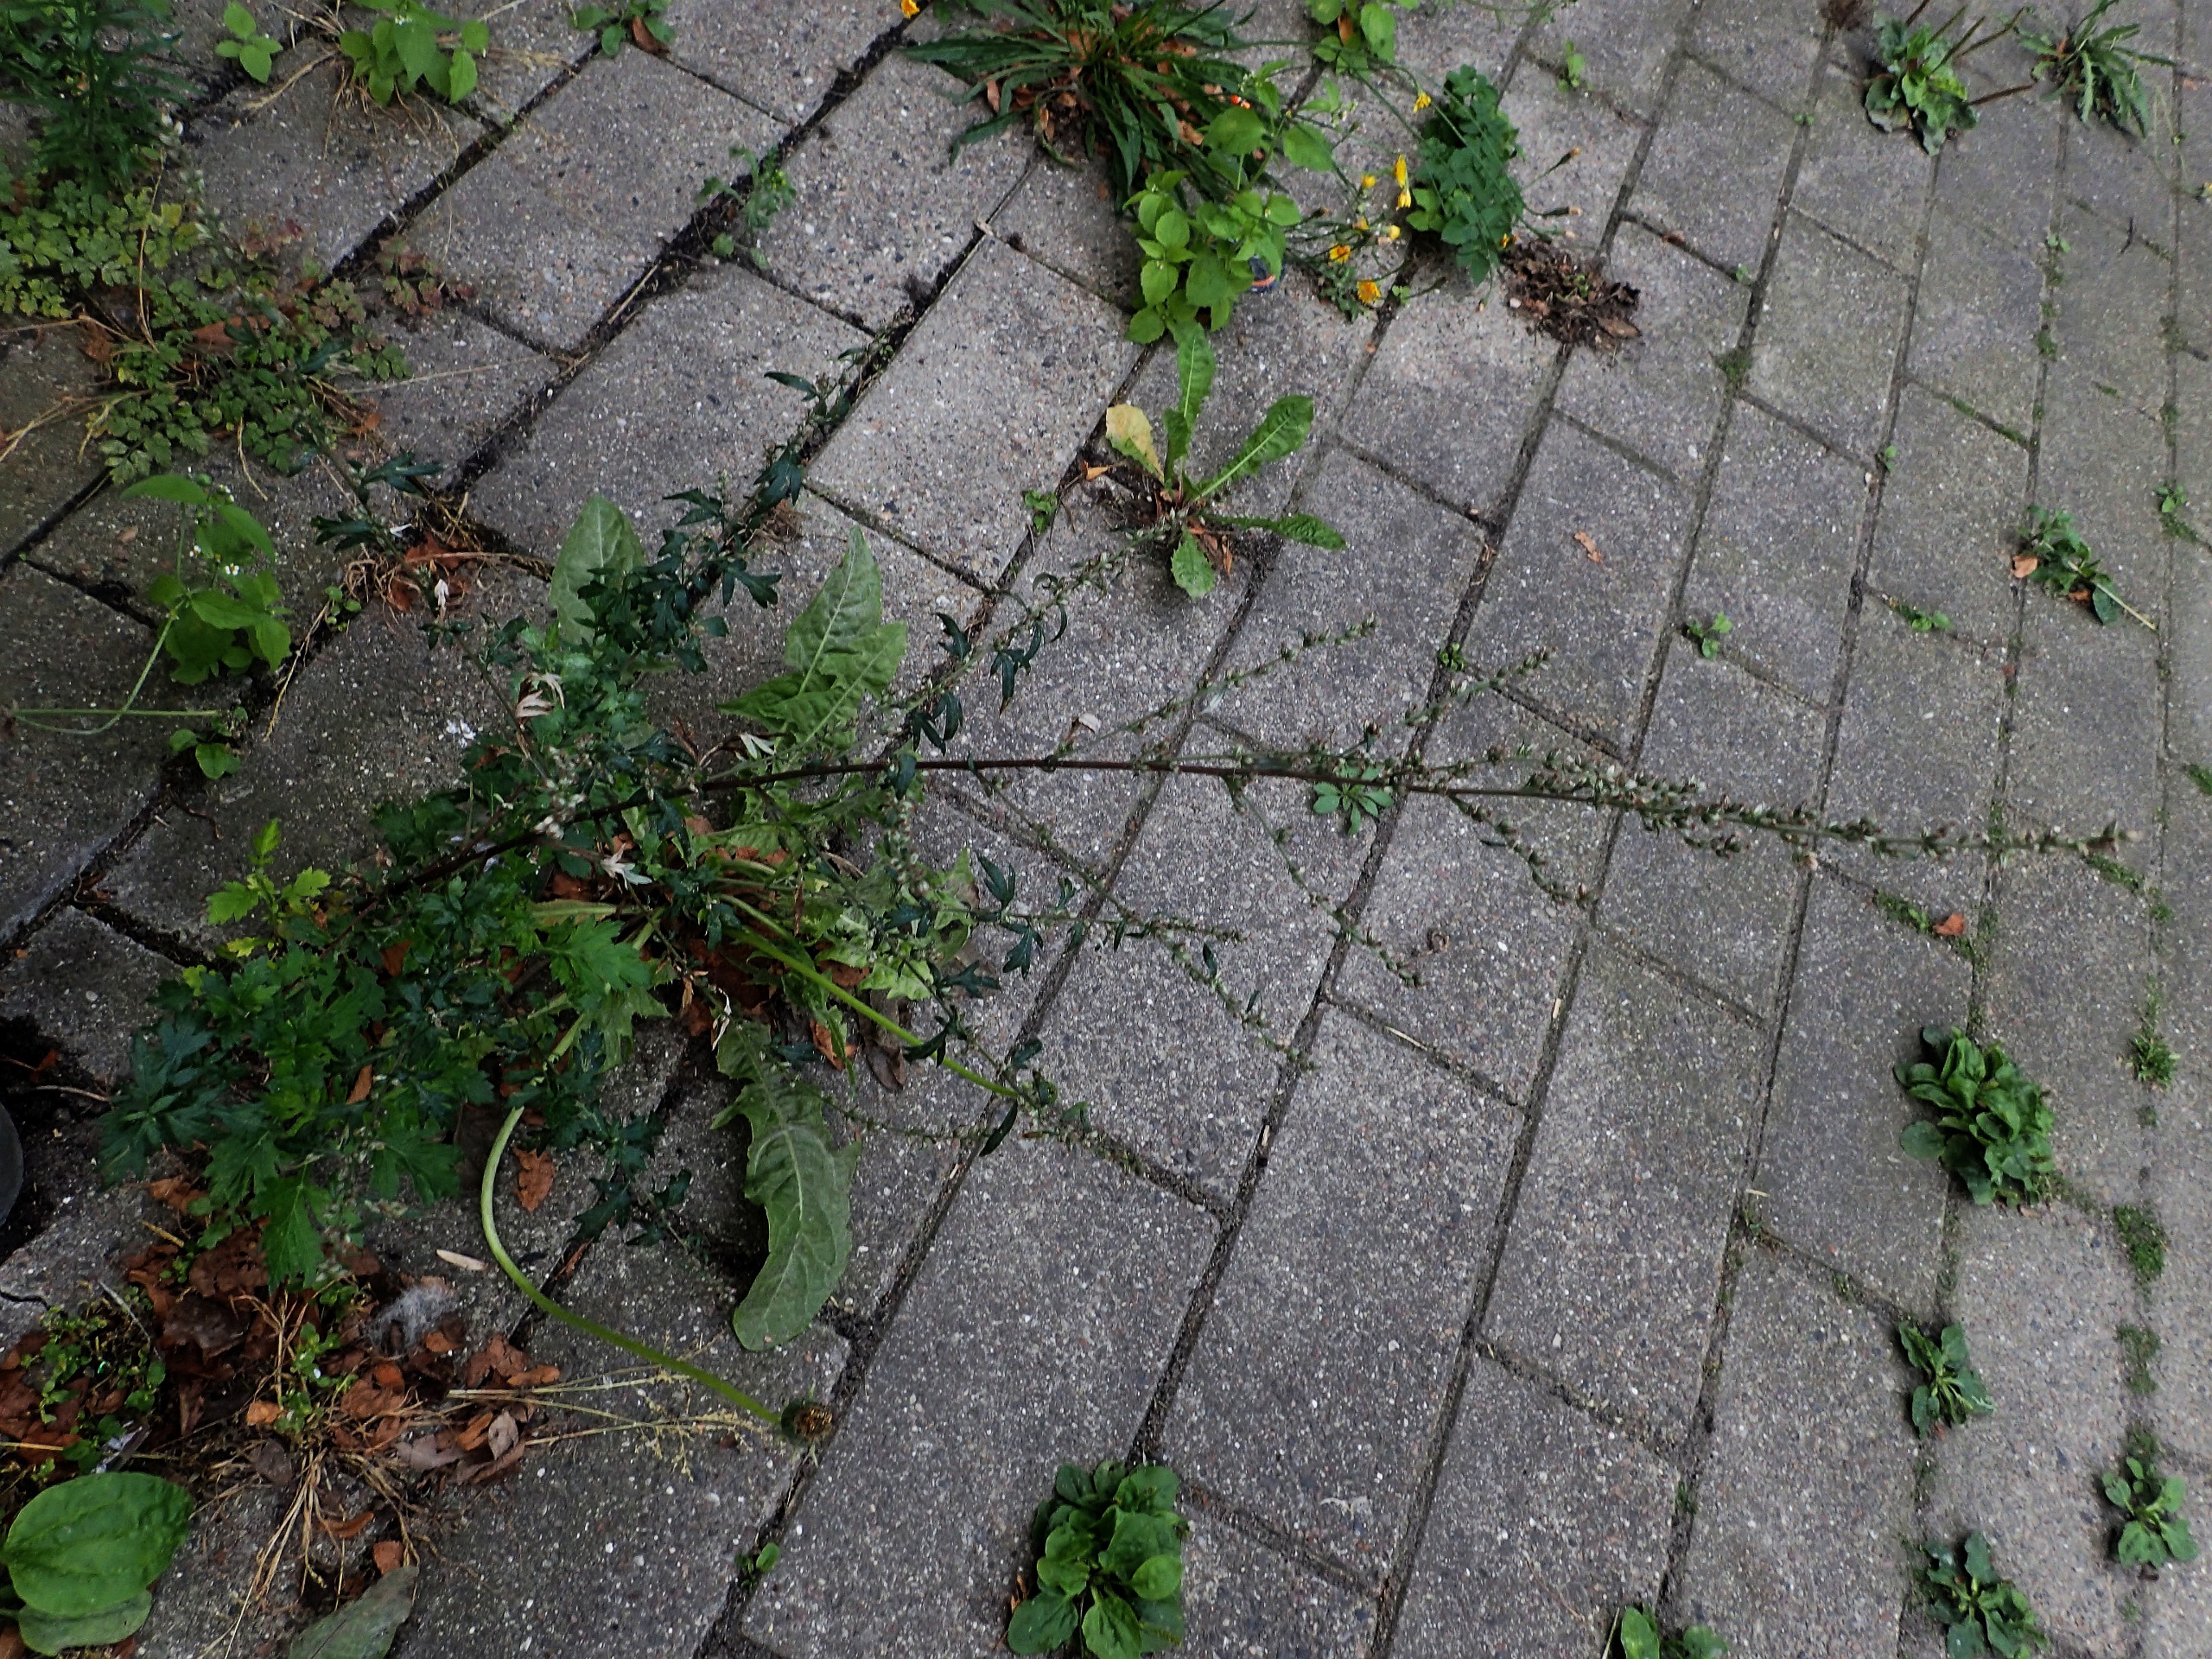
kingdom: Plantae
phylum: Tracheophyta
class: Magnoliopsida
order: Asterales
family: Asteraceae
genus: Artemisia
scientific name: Artemisia vulgaris
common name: Grå-bynke
